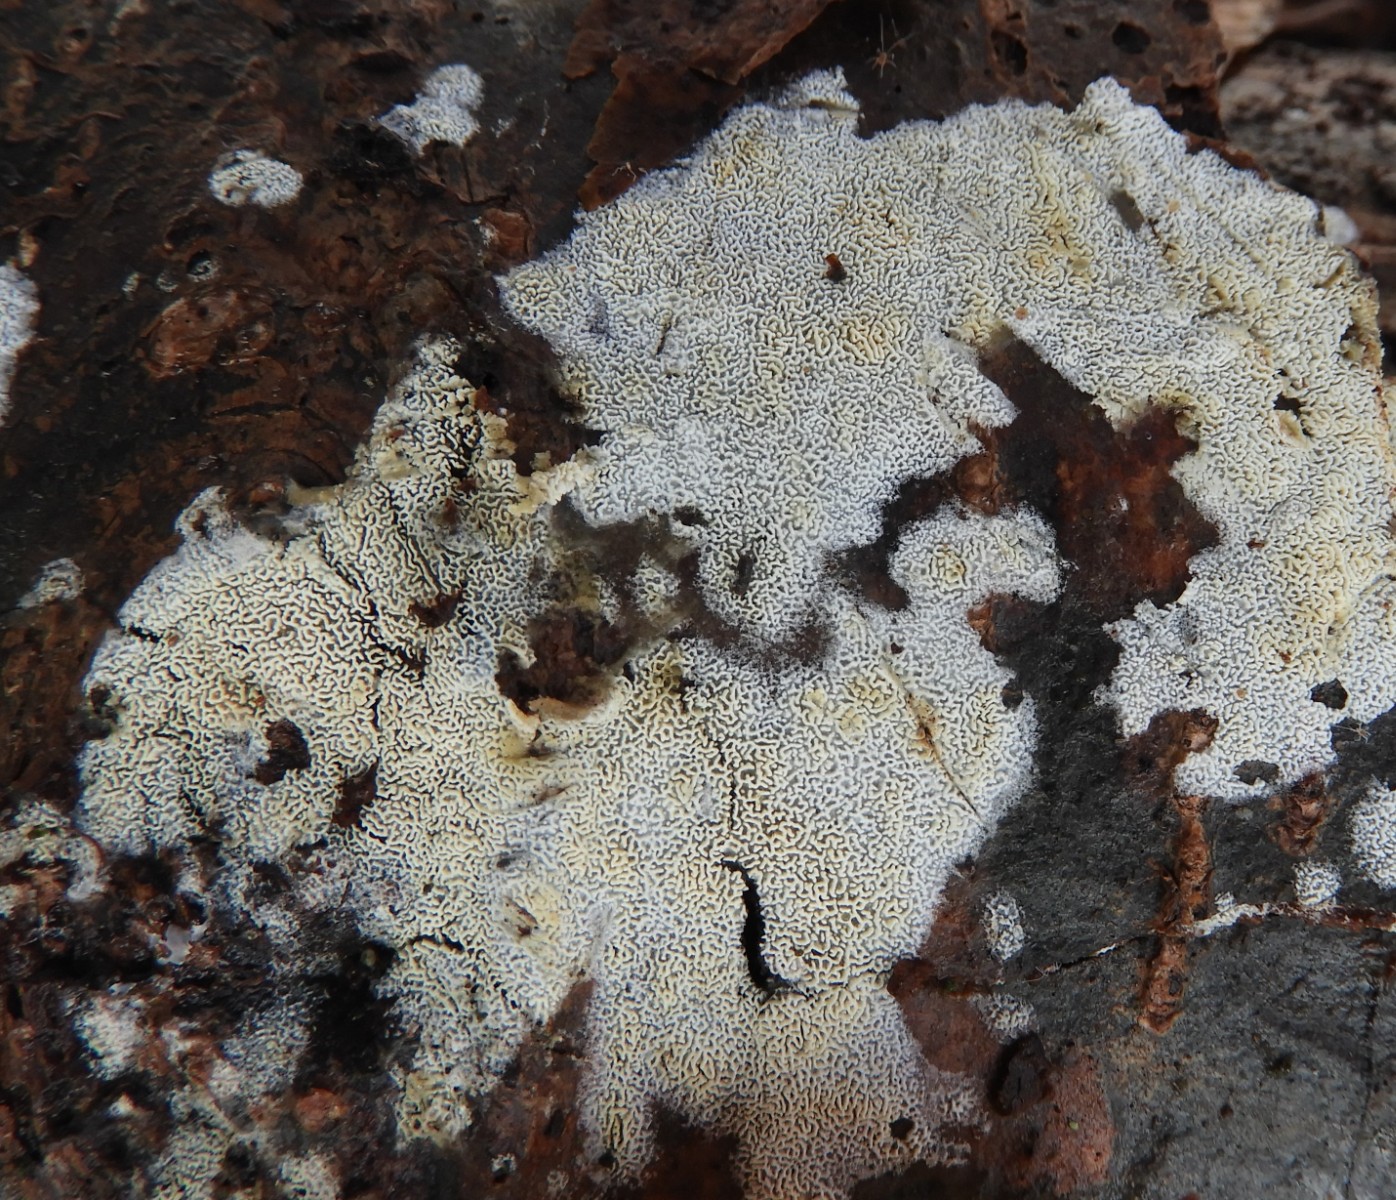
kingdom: Fungi
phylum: Basidiomycota
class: Agaricomycetes
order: Hymenochaetales
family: Schizoporaceae
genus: Xylodon
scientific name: Xylodon subtropicus
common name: labyrint-tandsvamp
